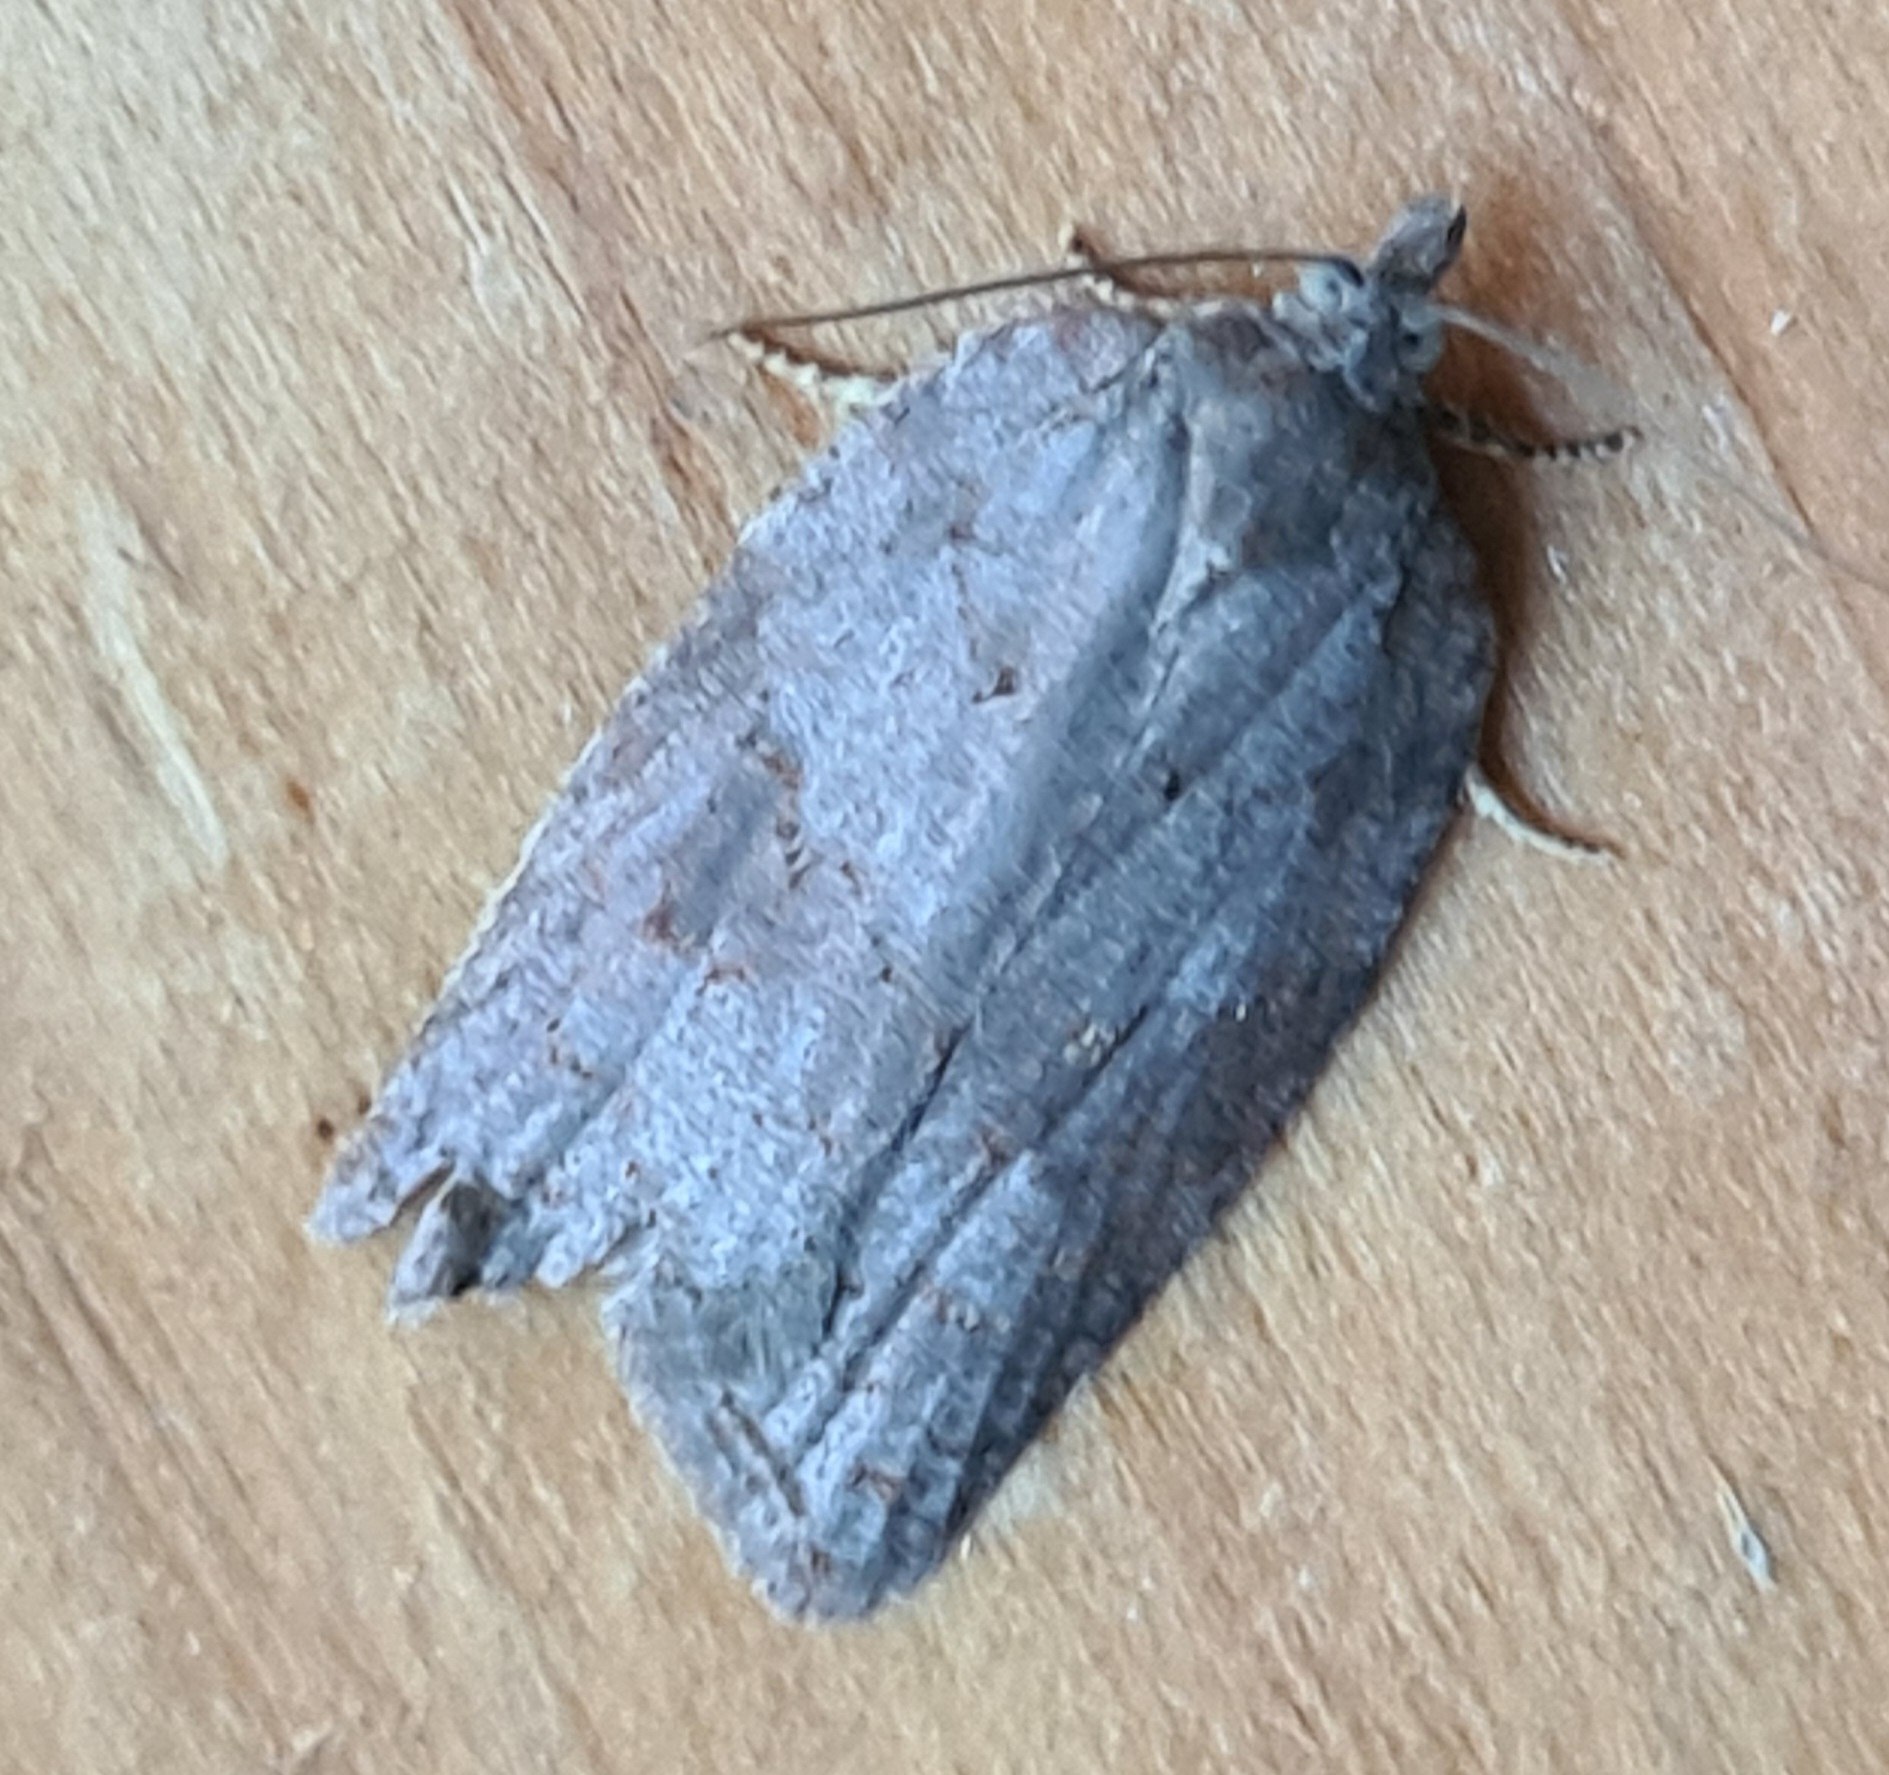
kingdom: Animalia
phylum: Arthropoda
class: Insecta
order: Lepidoptera
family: Tortricidae
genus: Acleris
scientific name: Acleris sparsana
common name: Bøgevintervikler
